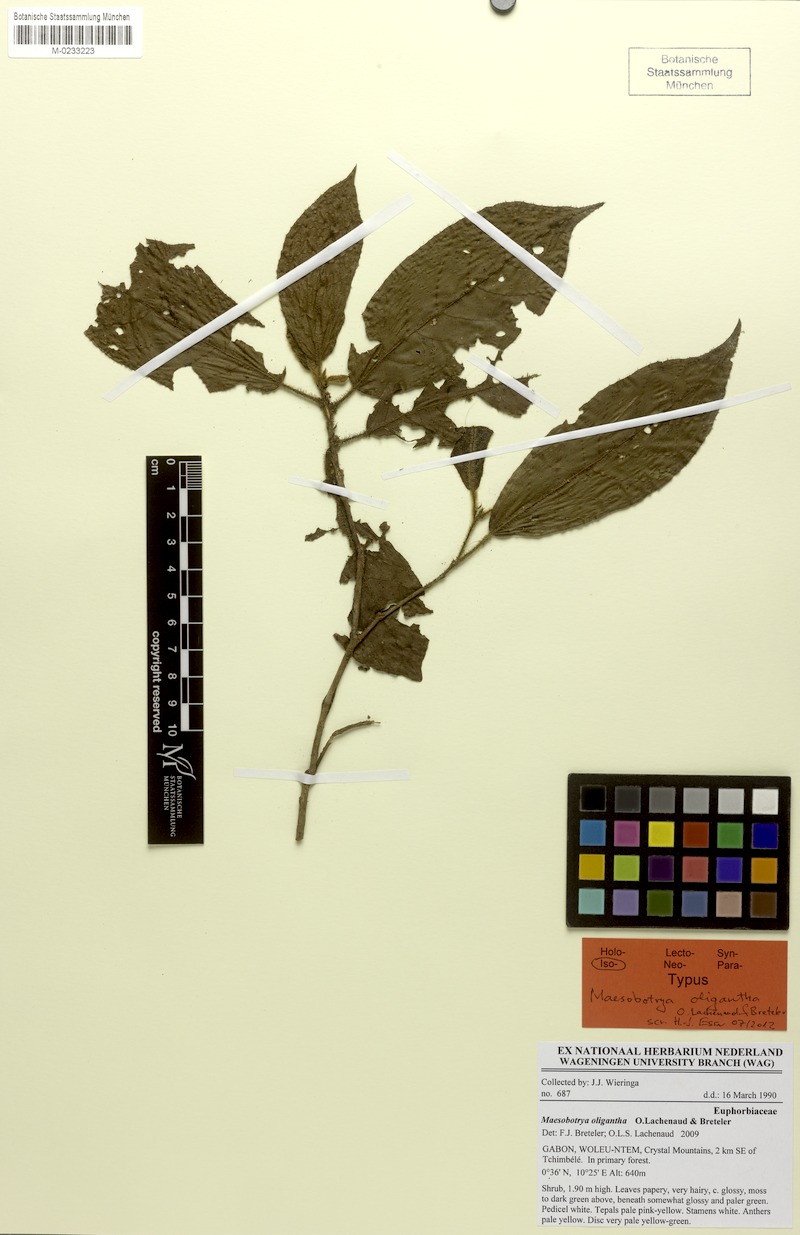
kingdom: Plantae
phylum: Tracheophyta
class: Magnoliopsida
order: Malpighiales
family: Phyllanthaceae
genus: Maesobotrya
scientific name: Maesobotrya oligantha
